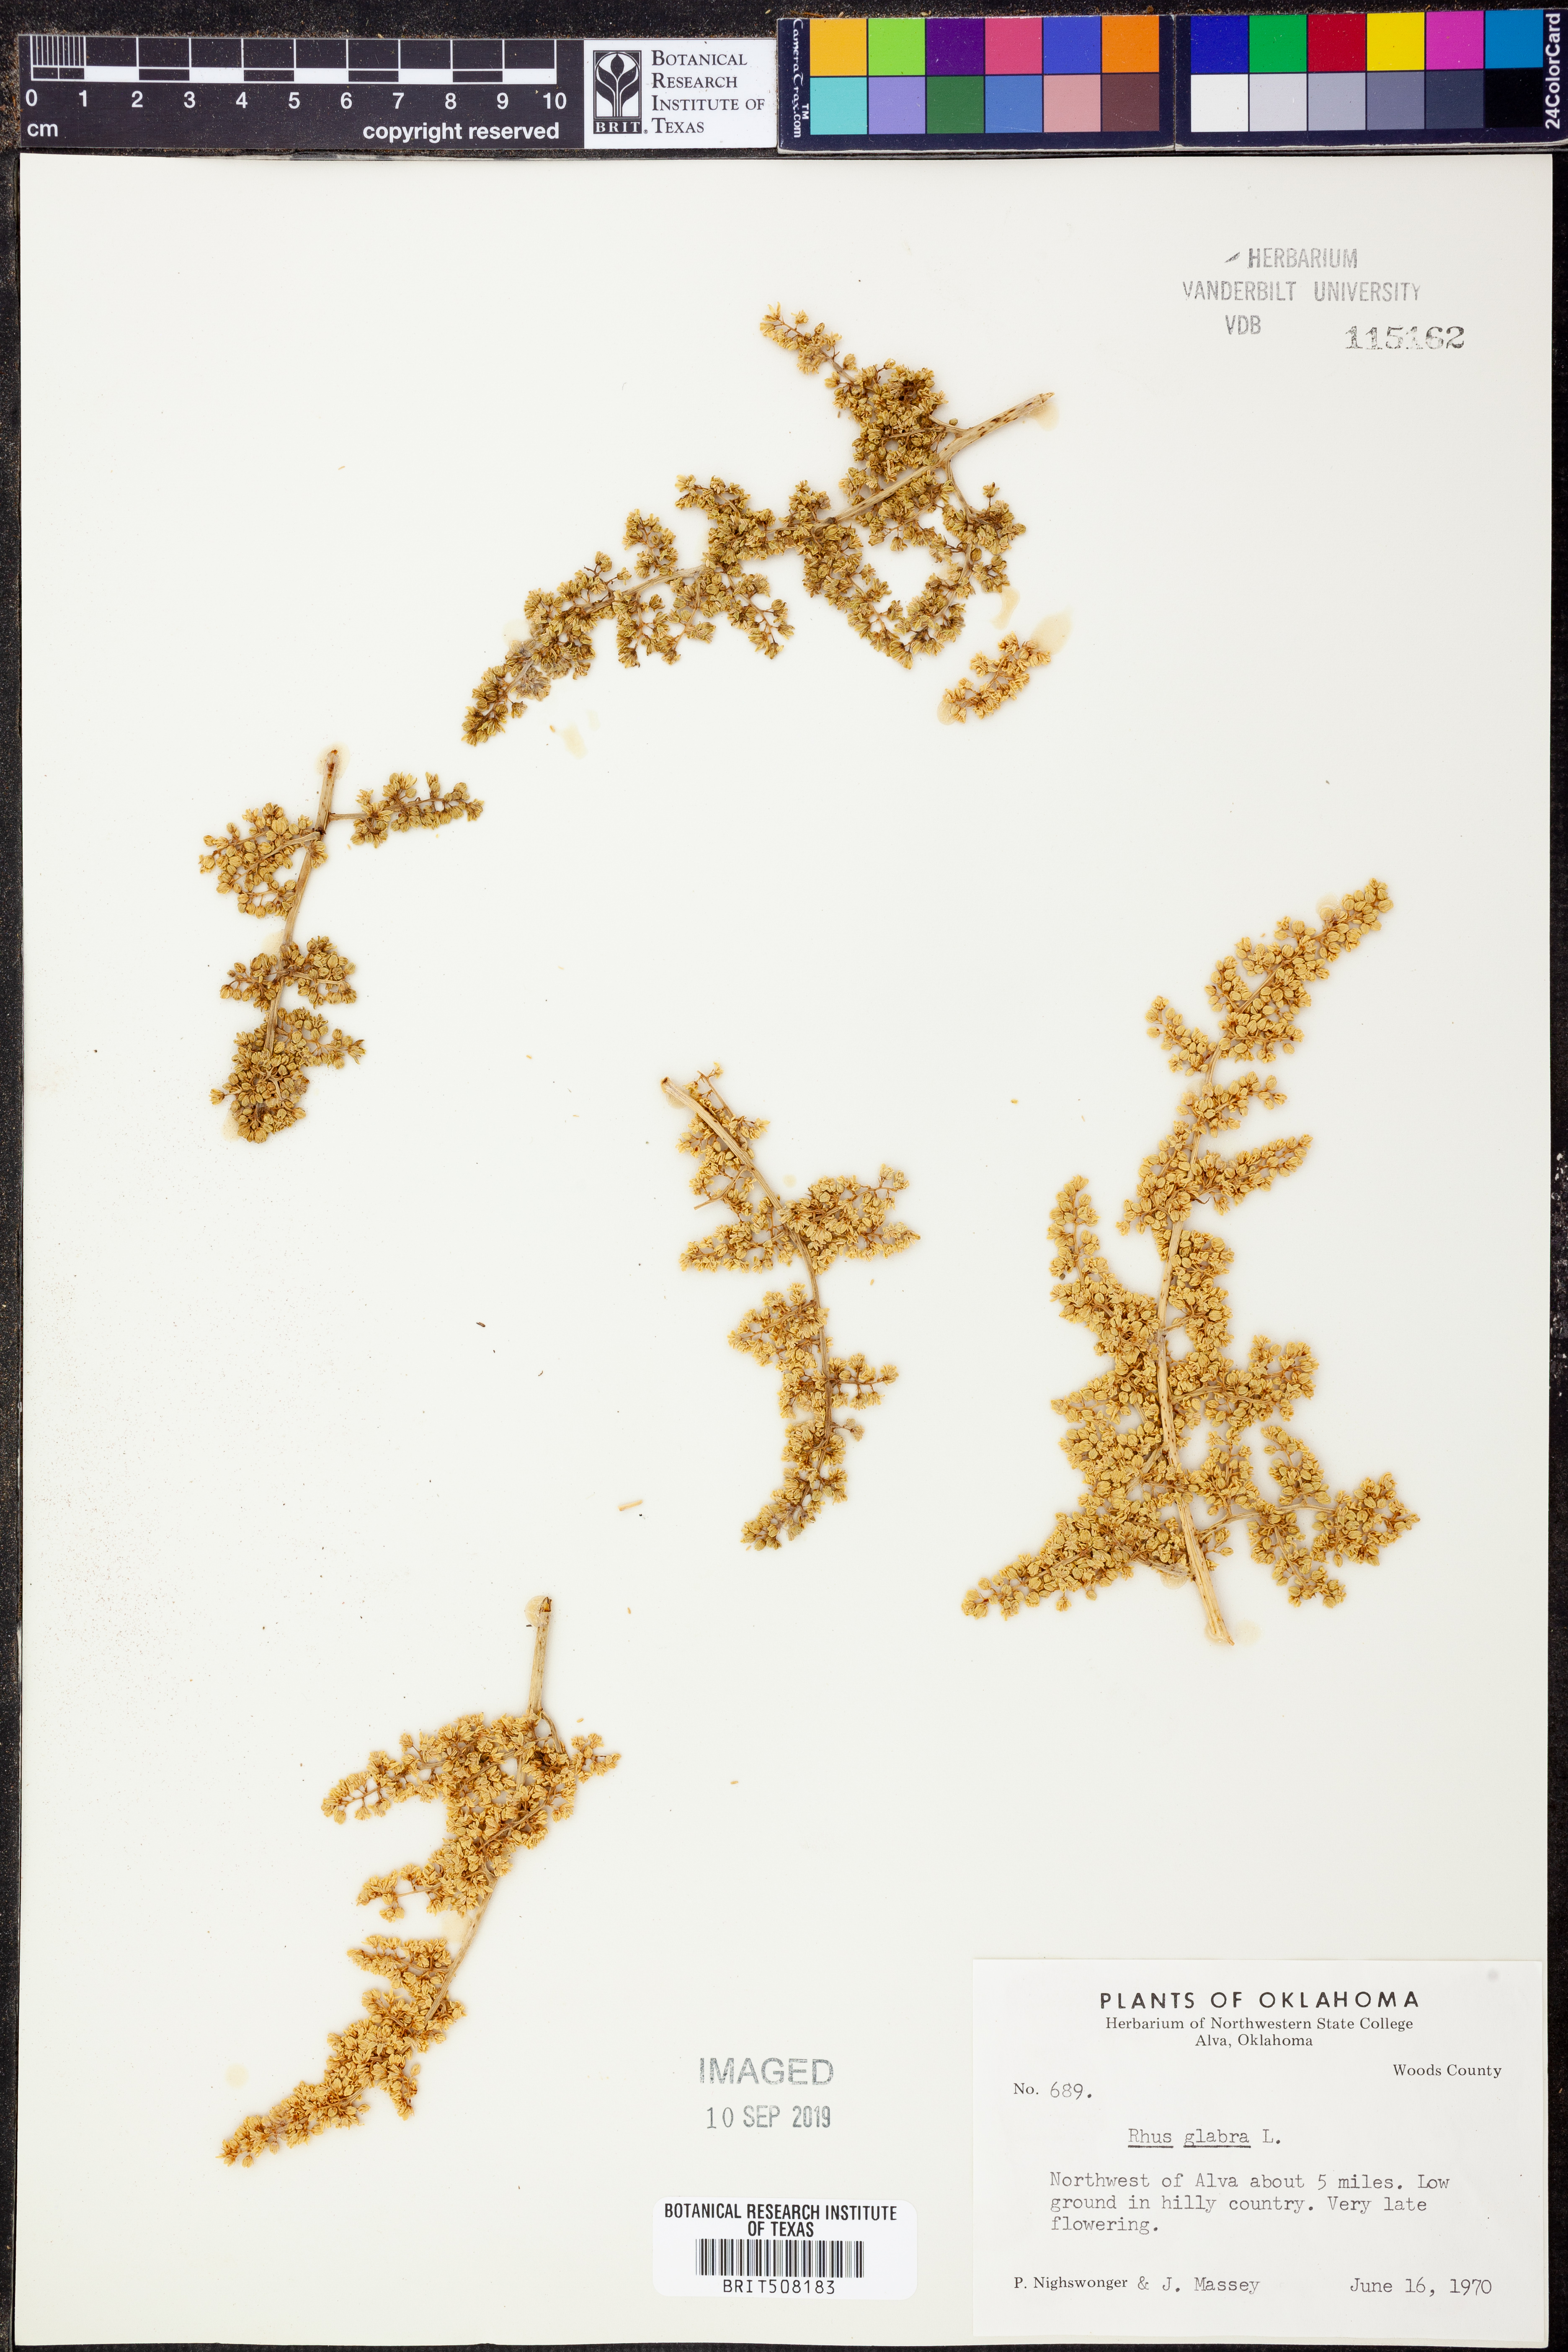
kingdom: Plantae
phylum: Tracheophyta
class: Magnoliopsida
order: Sapindales
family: Anacardiaceae
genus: Rhus
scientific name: Rhus glabra
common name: Scarlet sumac
